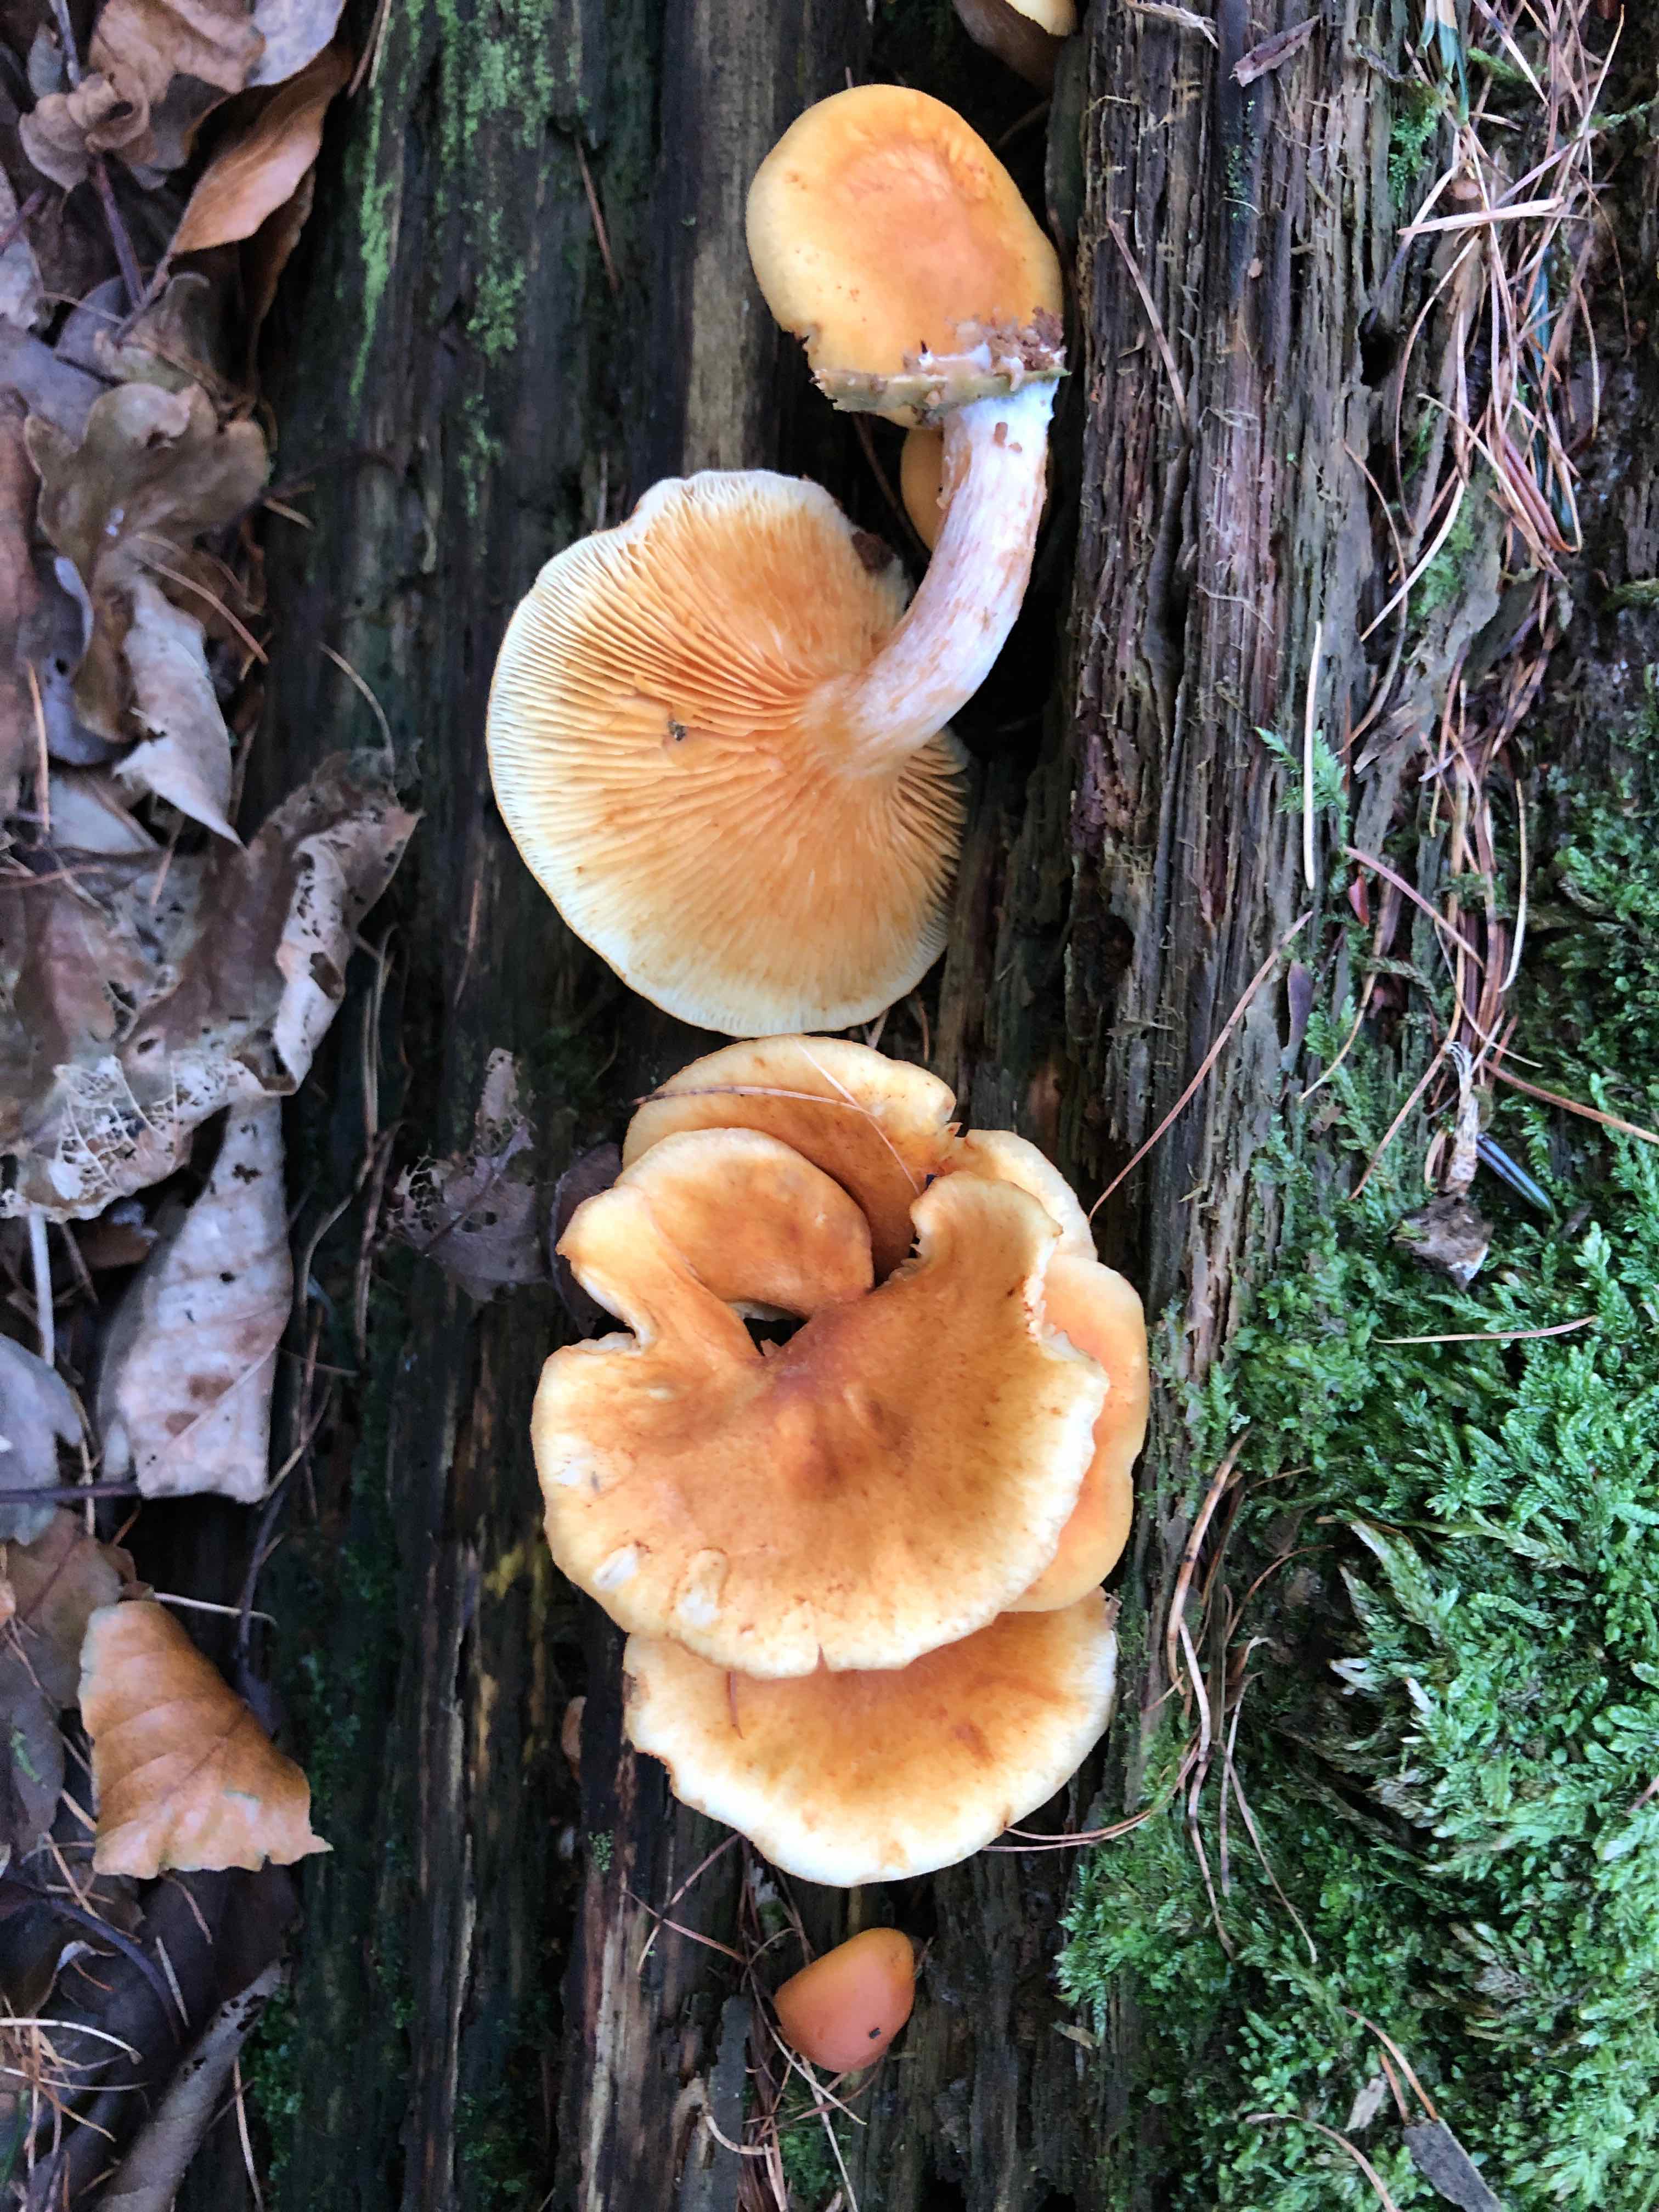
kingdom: Fungi
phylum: Basidiomycota
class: Agaricomycetes
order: Agaricales
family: Hymenogastraceae
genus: Gymnopilus
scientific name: Gymnopilus penetrans
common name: plettet flammehat
